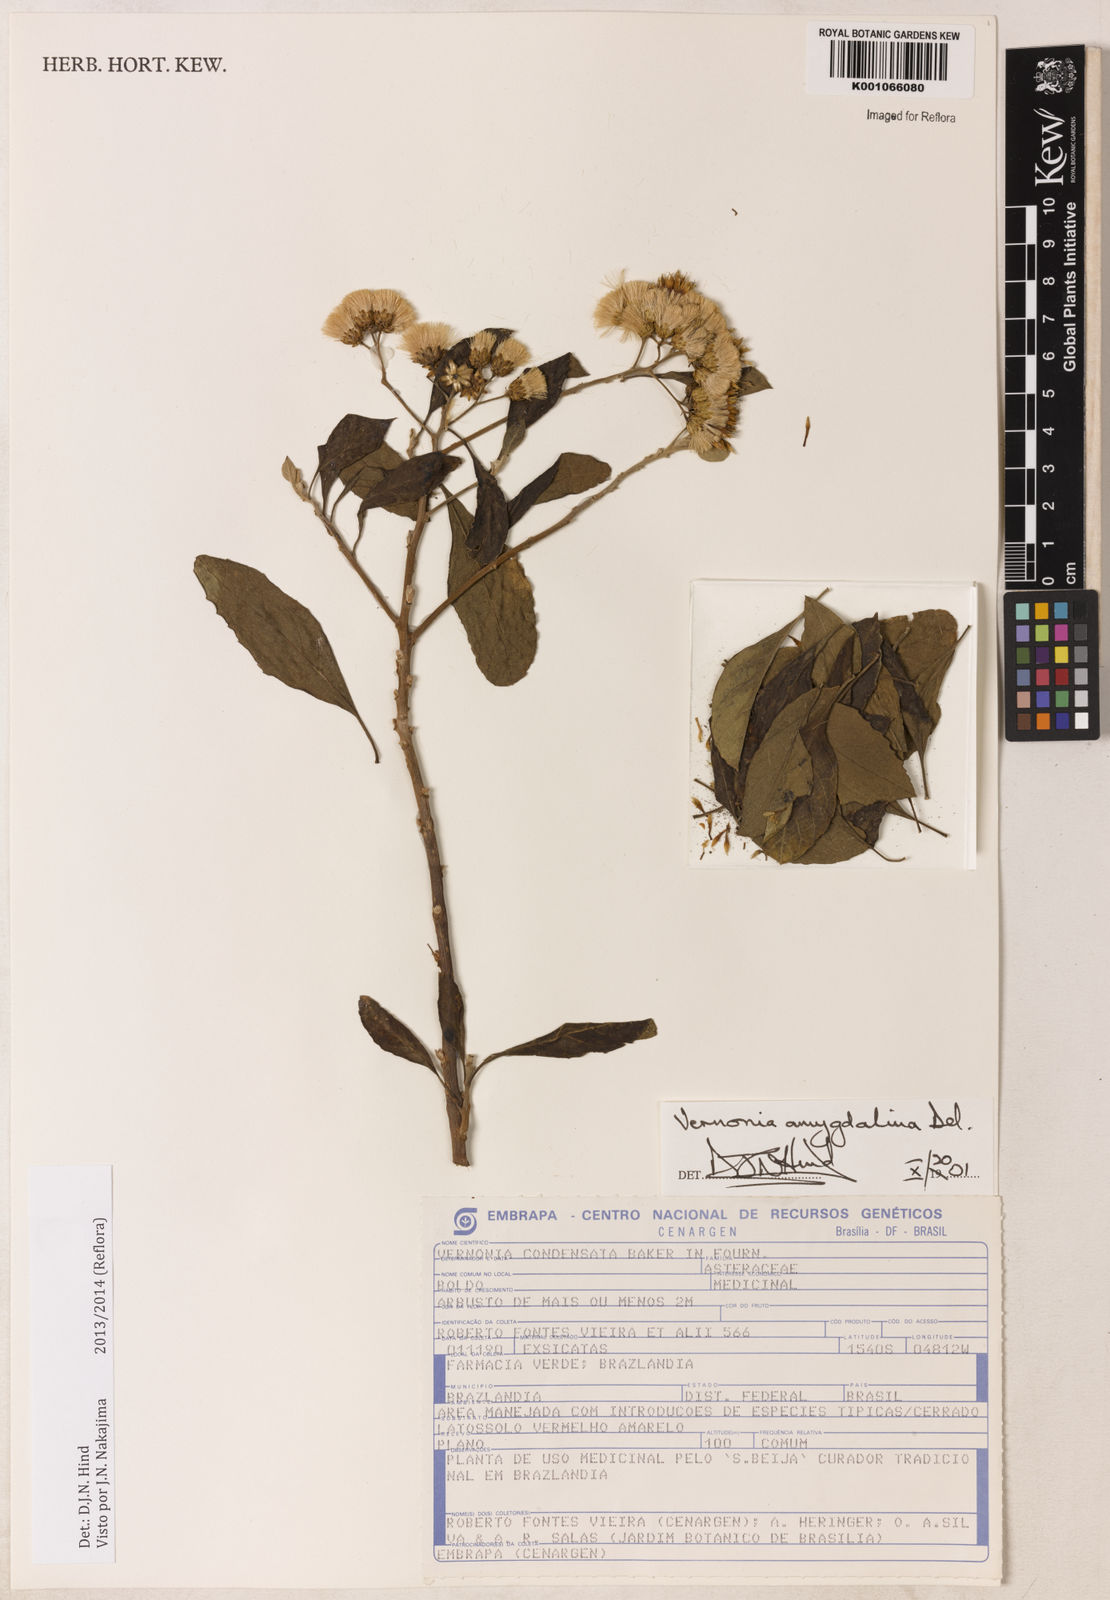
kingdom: Plantae
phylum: Tracheophyta
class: Magnoliopsida
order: Asterales
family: Asteraceae
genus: Gymnanthemum
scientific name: Gymnanthemum amygdalinum
